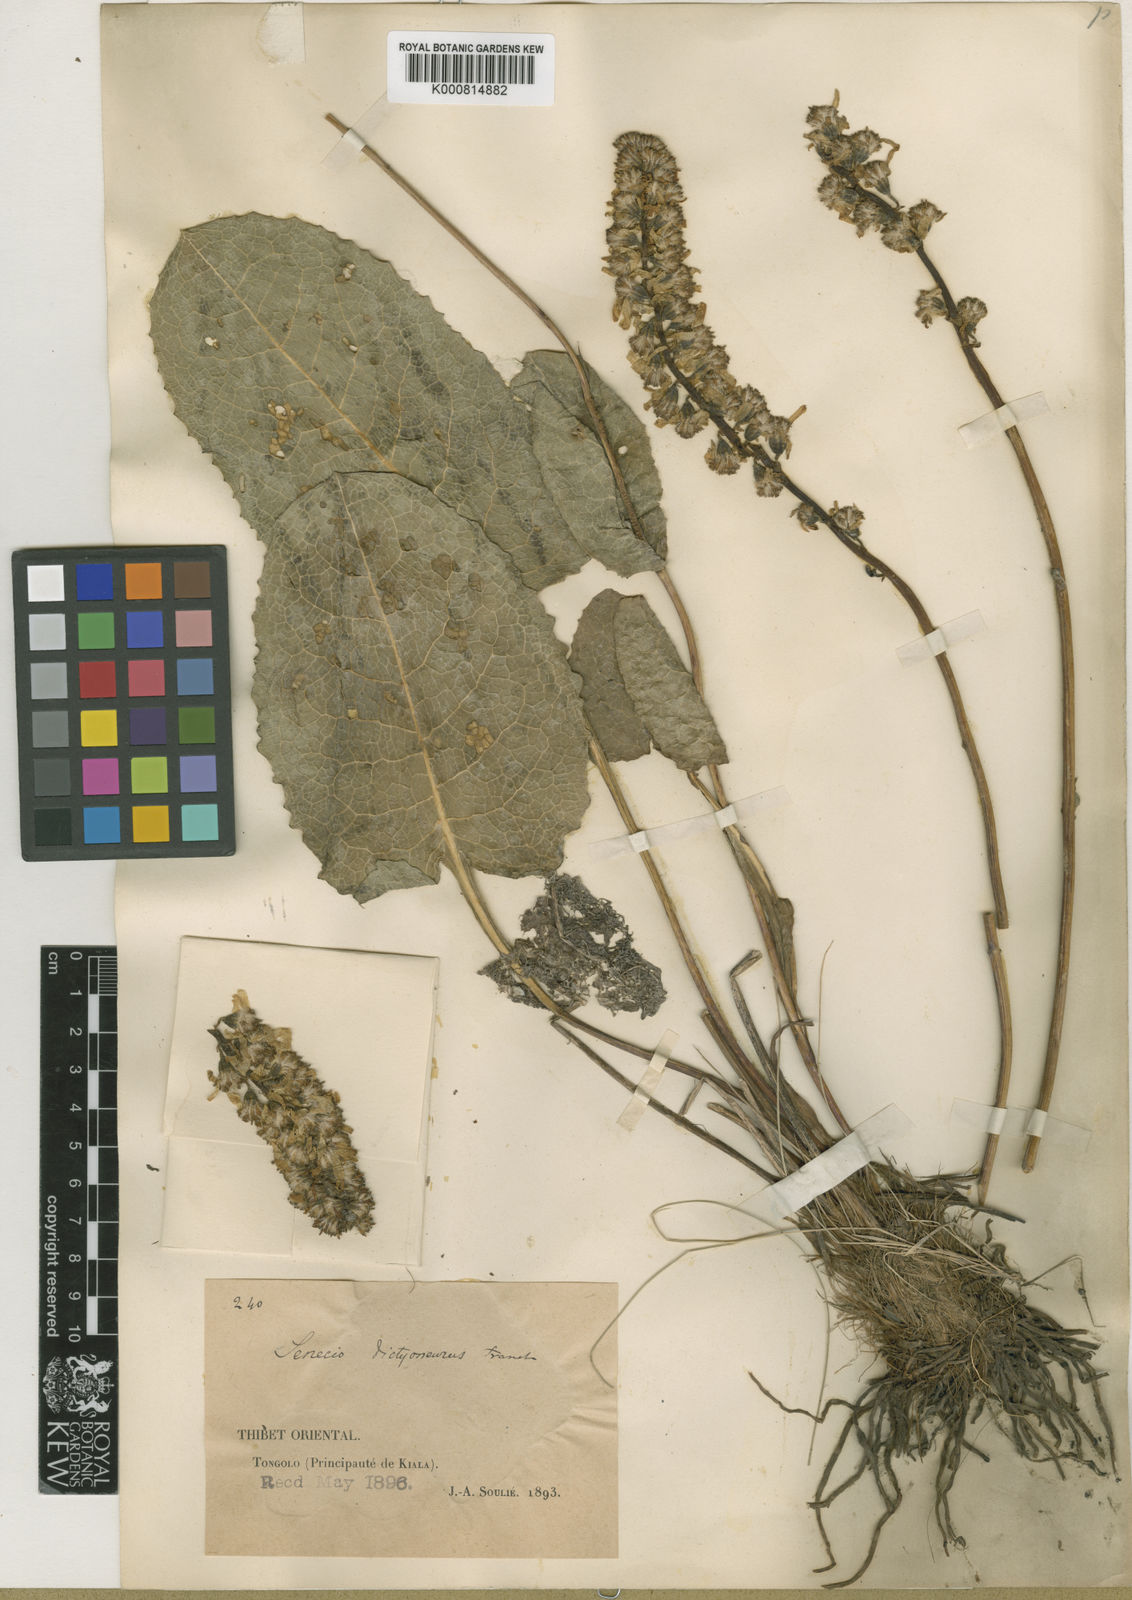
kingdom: Plantae
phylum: Tracheophyta
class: Magnoliopsida
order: Asterales
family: Asteraceae
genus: Ligularia
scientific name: Ligularia dictyoneura
